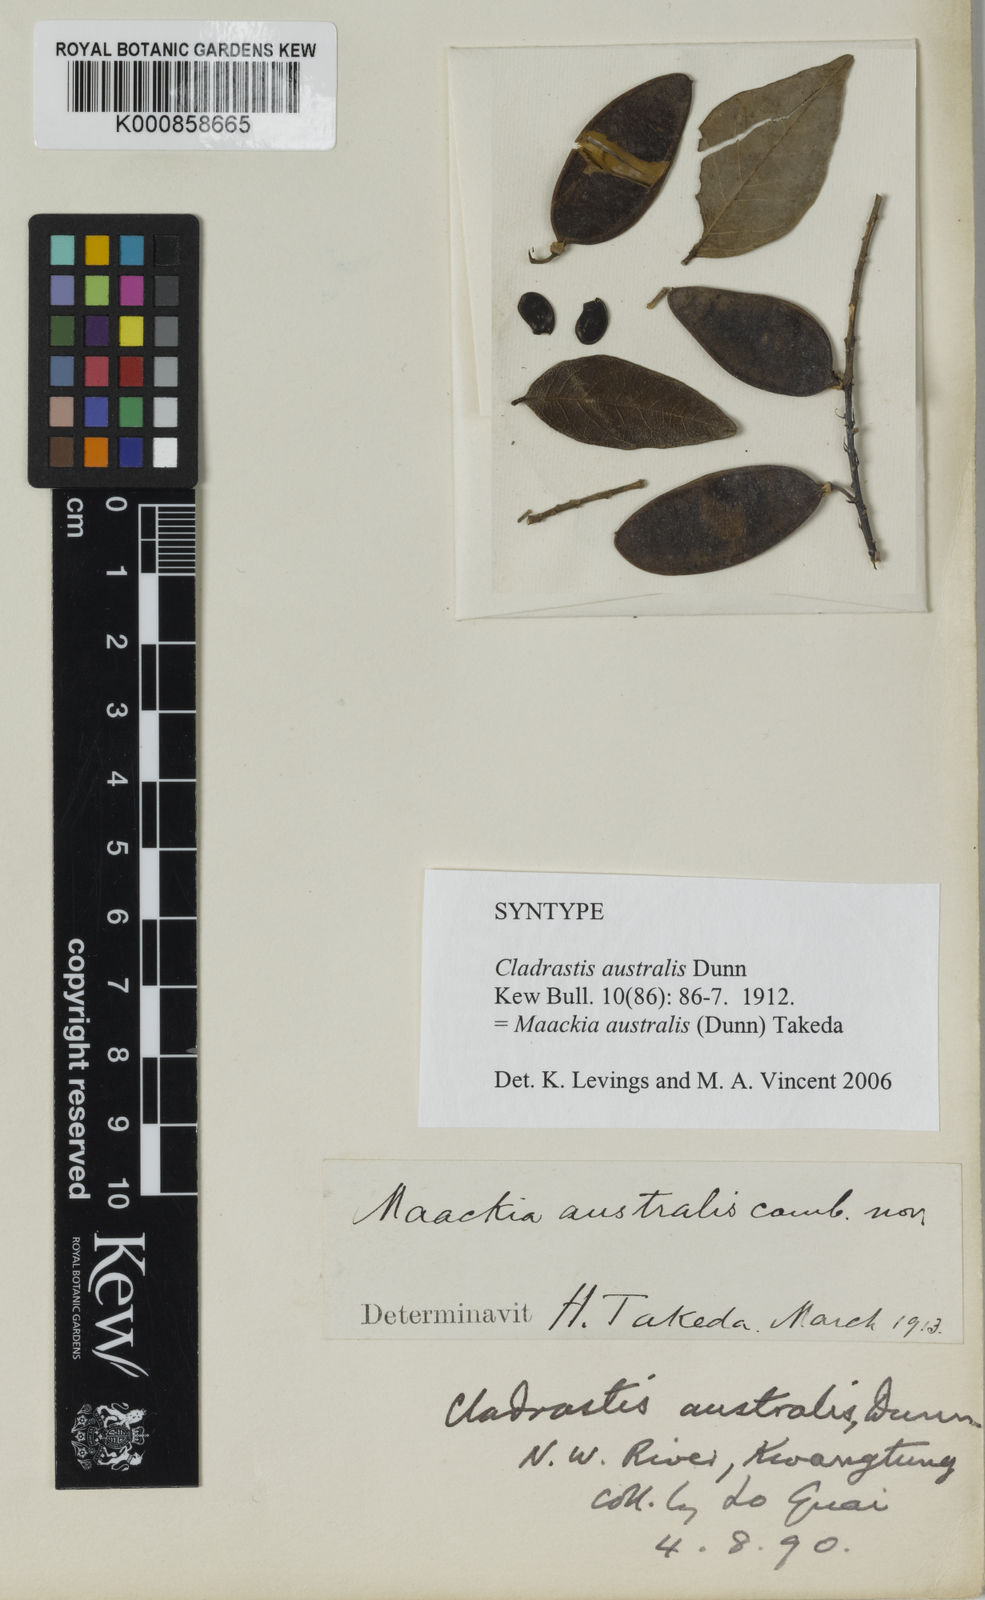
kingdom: Plantae
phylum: Tracheophyta
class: Magnoliopsida
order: Fabales
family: Fabaceae
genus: Maackia
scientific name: Maackia australis
